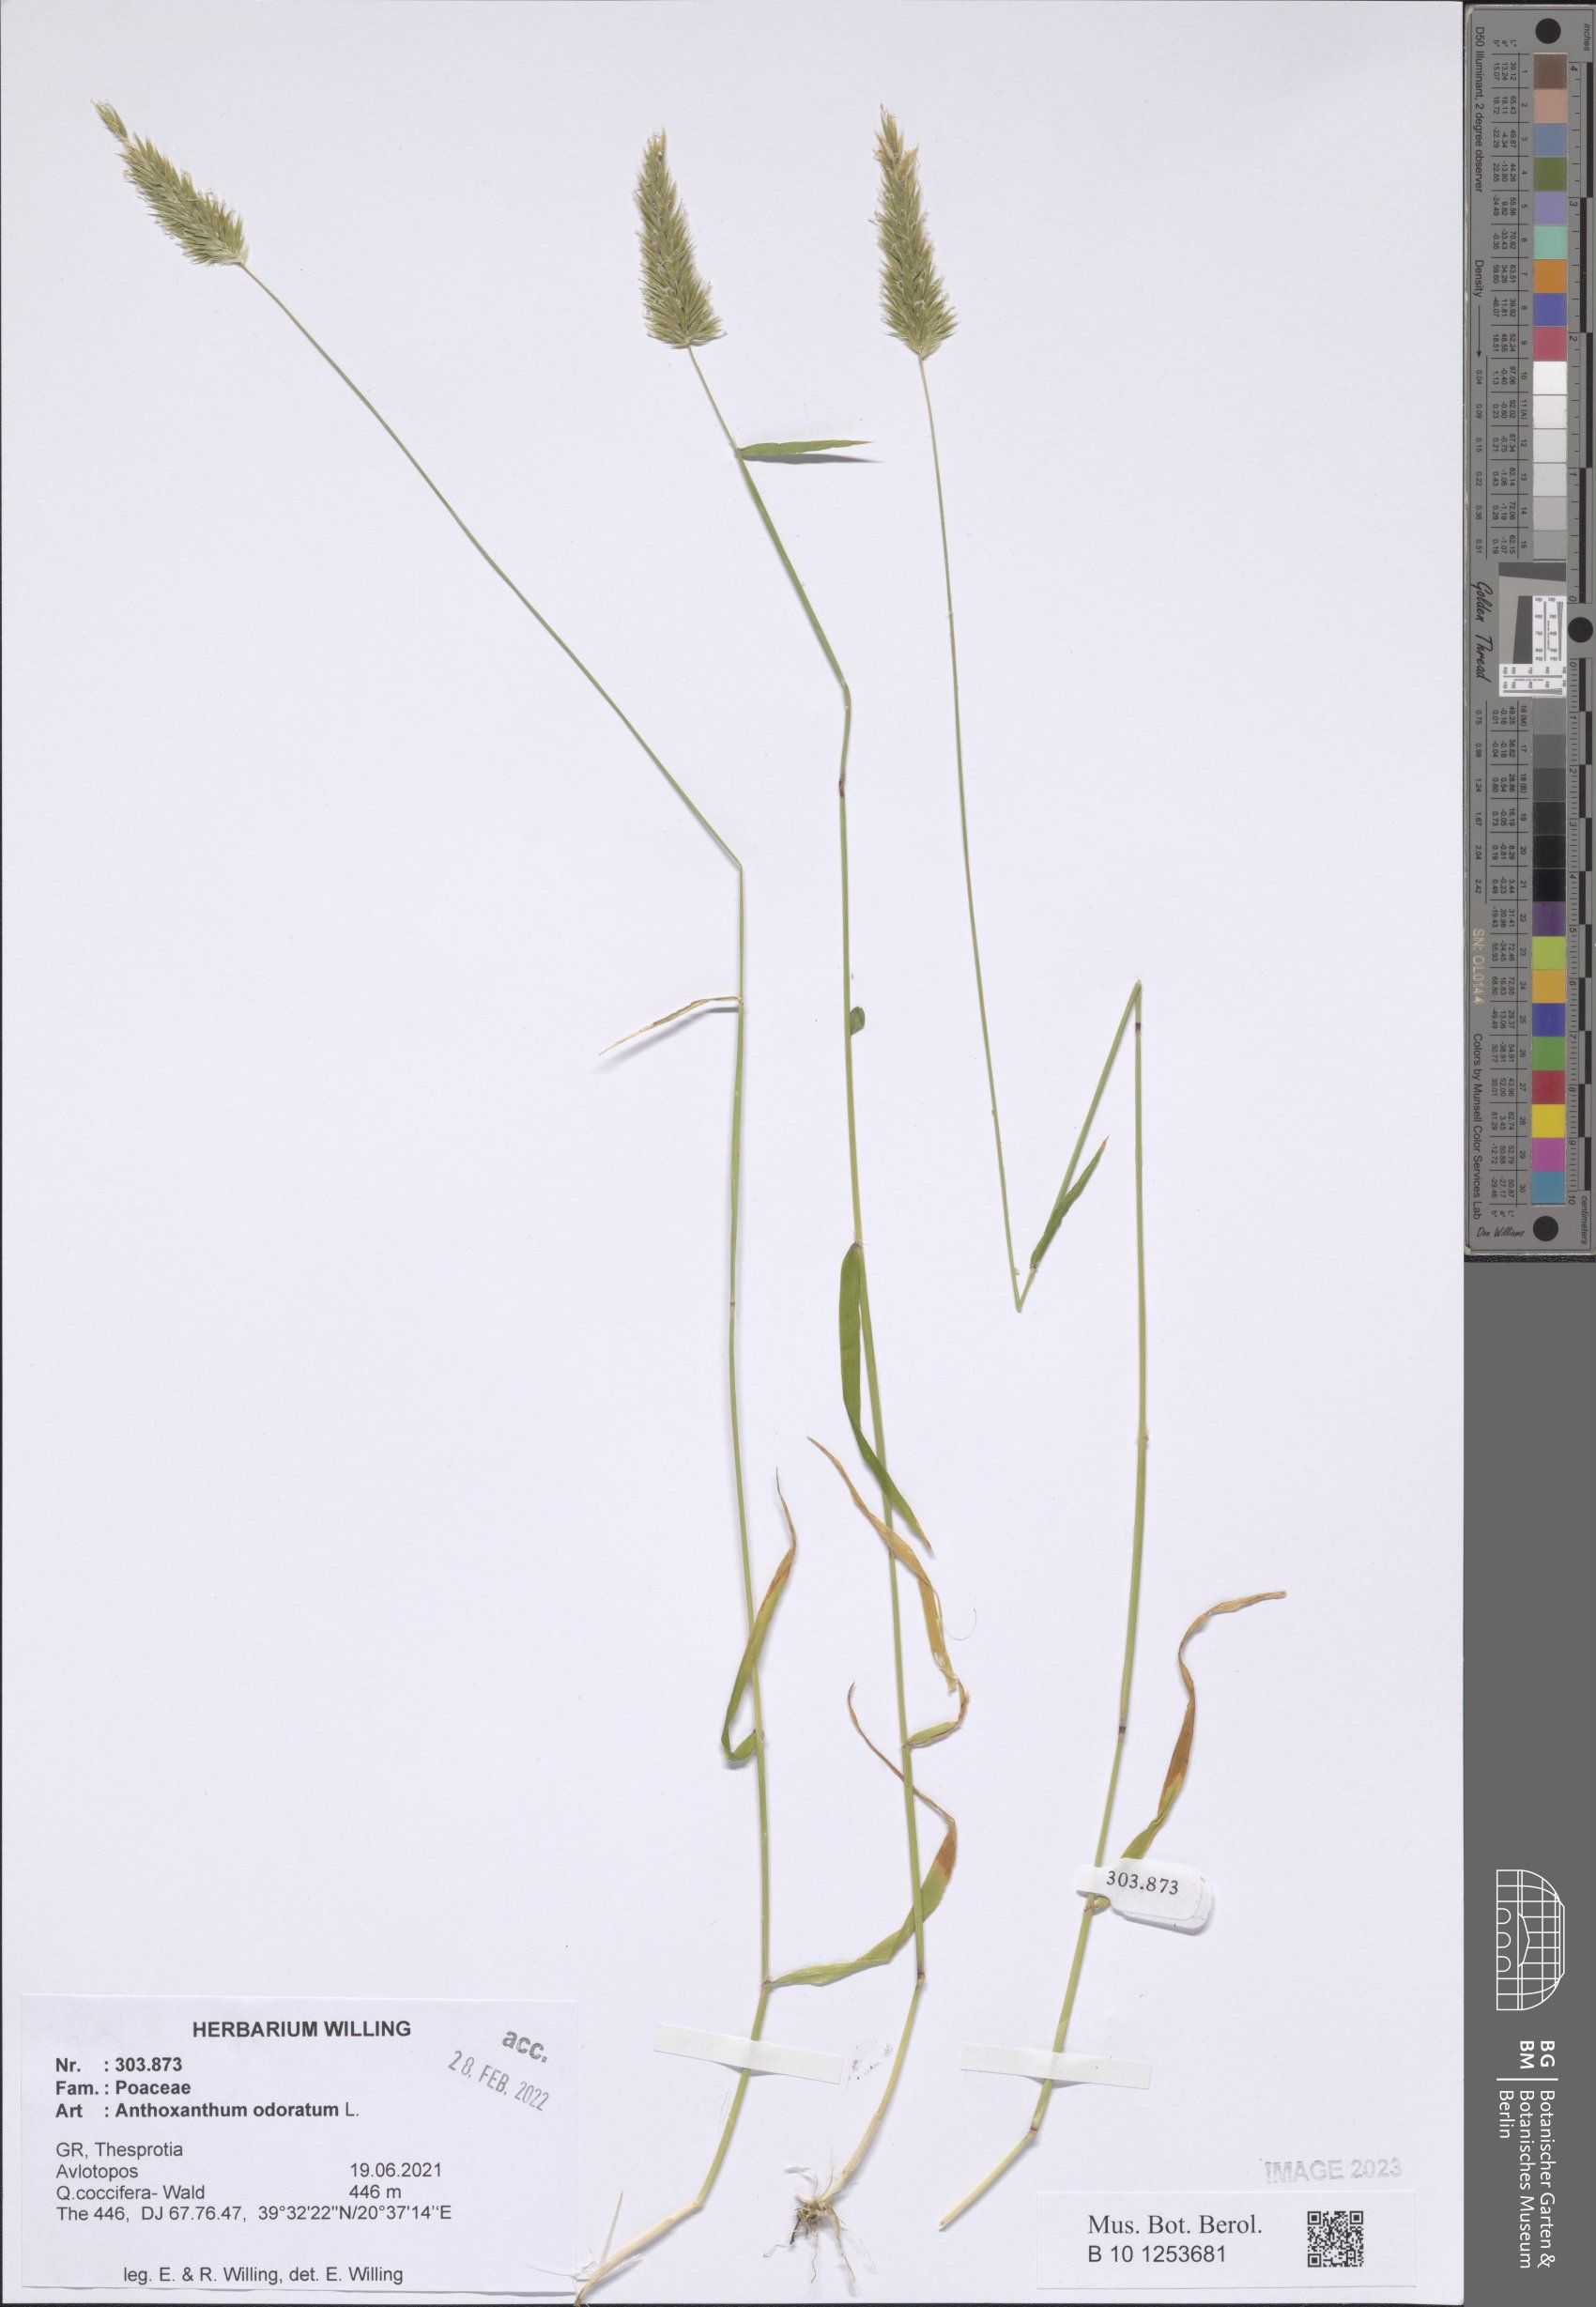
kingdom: Plantae
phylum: Tracheophyta
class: Liliopsida
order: Poales
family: Poaceae
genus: Anthoxanthum
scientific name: Anthoxanthum odoratum
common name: Sweet vernalgrass
